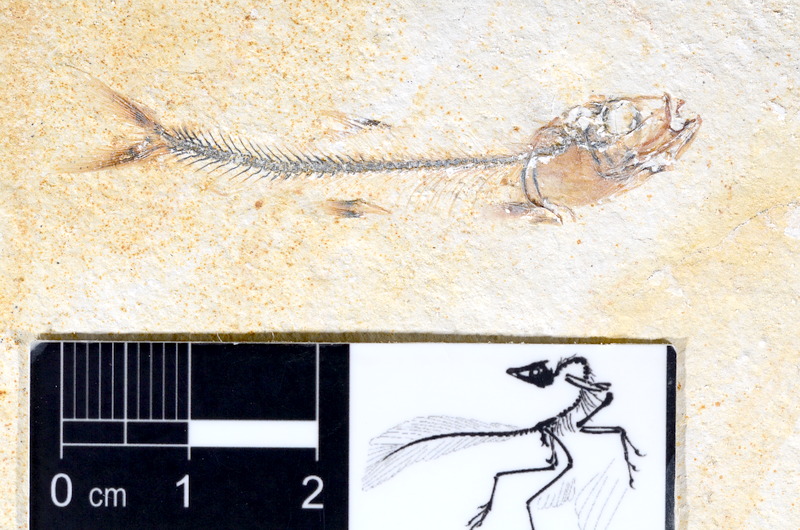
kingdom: Animalia
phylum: Chordata
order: Salmoniformes
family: Orthogonikleithridae
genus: Orthogonikleithrus
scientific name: Orthogonikleithrus hoelli
